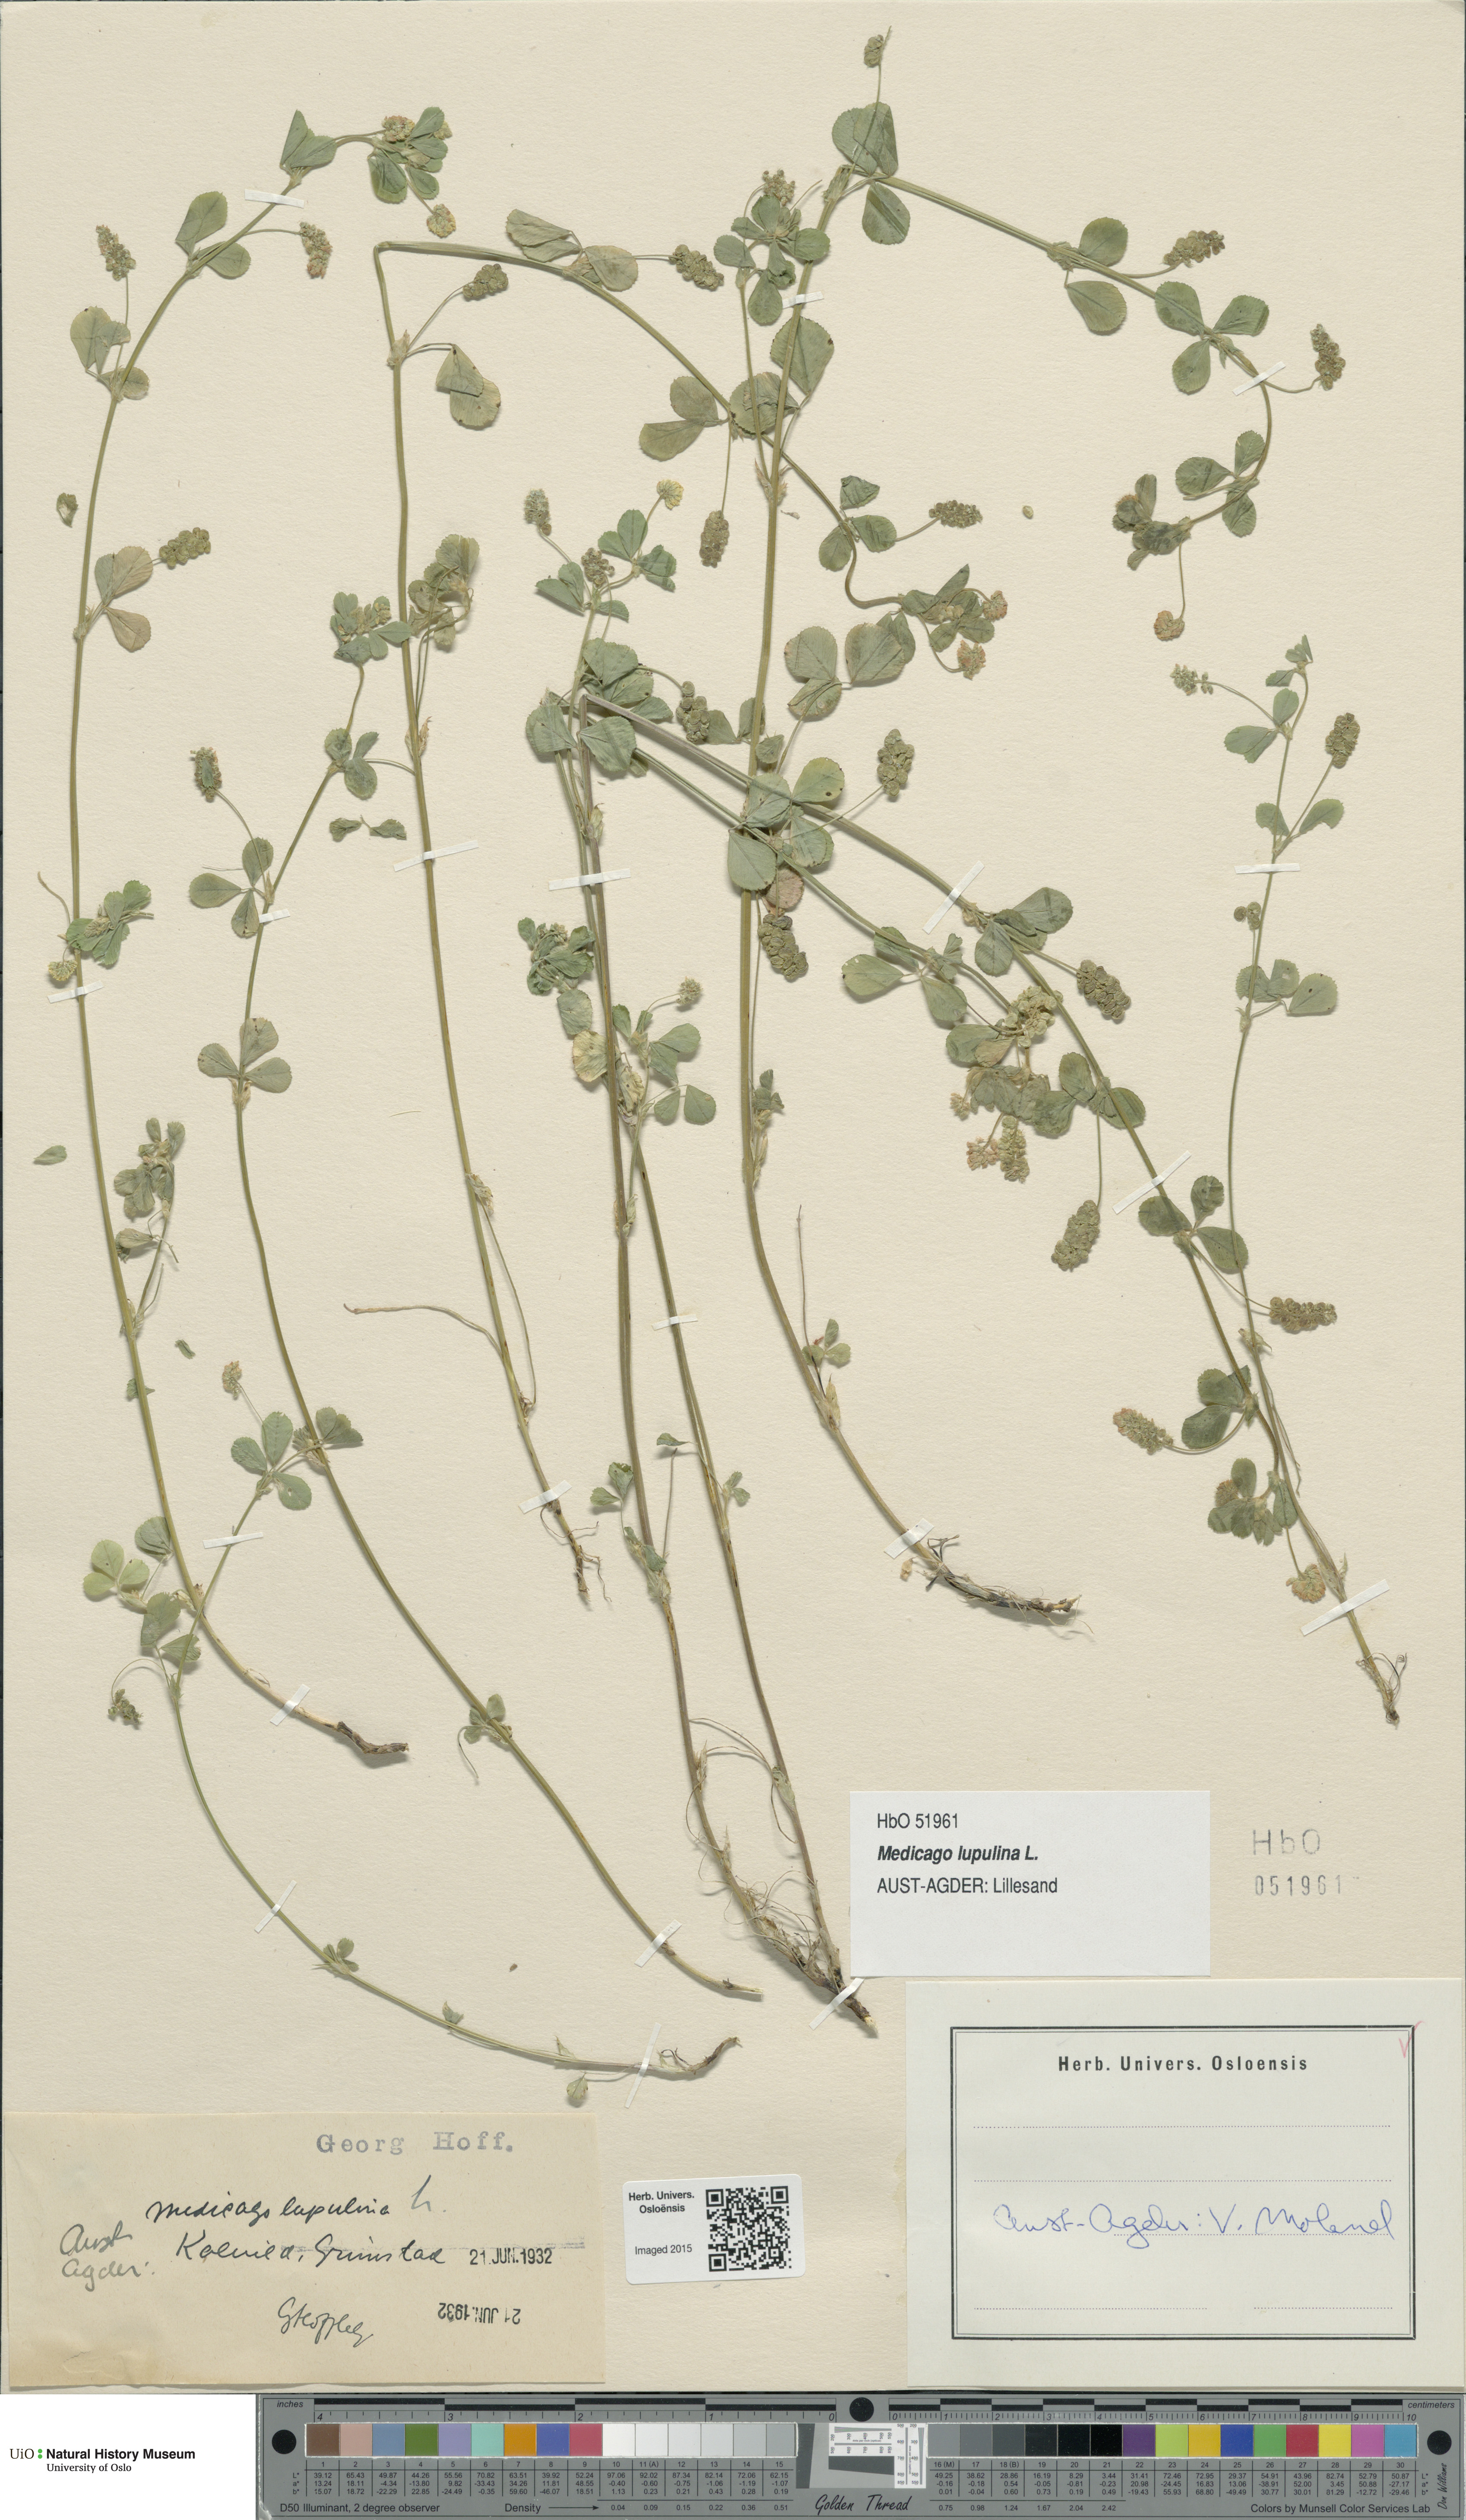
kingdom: Plantae
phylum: Tracheophyta
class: Magnoliopsida
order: Fabales
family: Fabaceae
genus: Medicago
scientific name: Medicago lupulina
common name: Black medick
